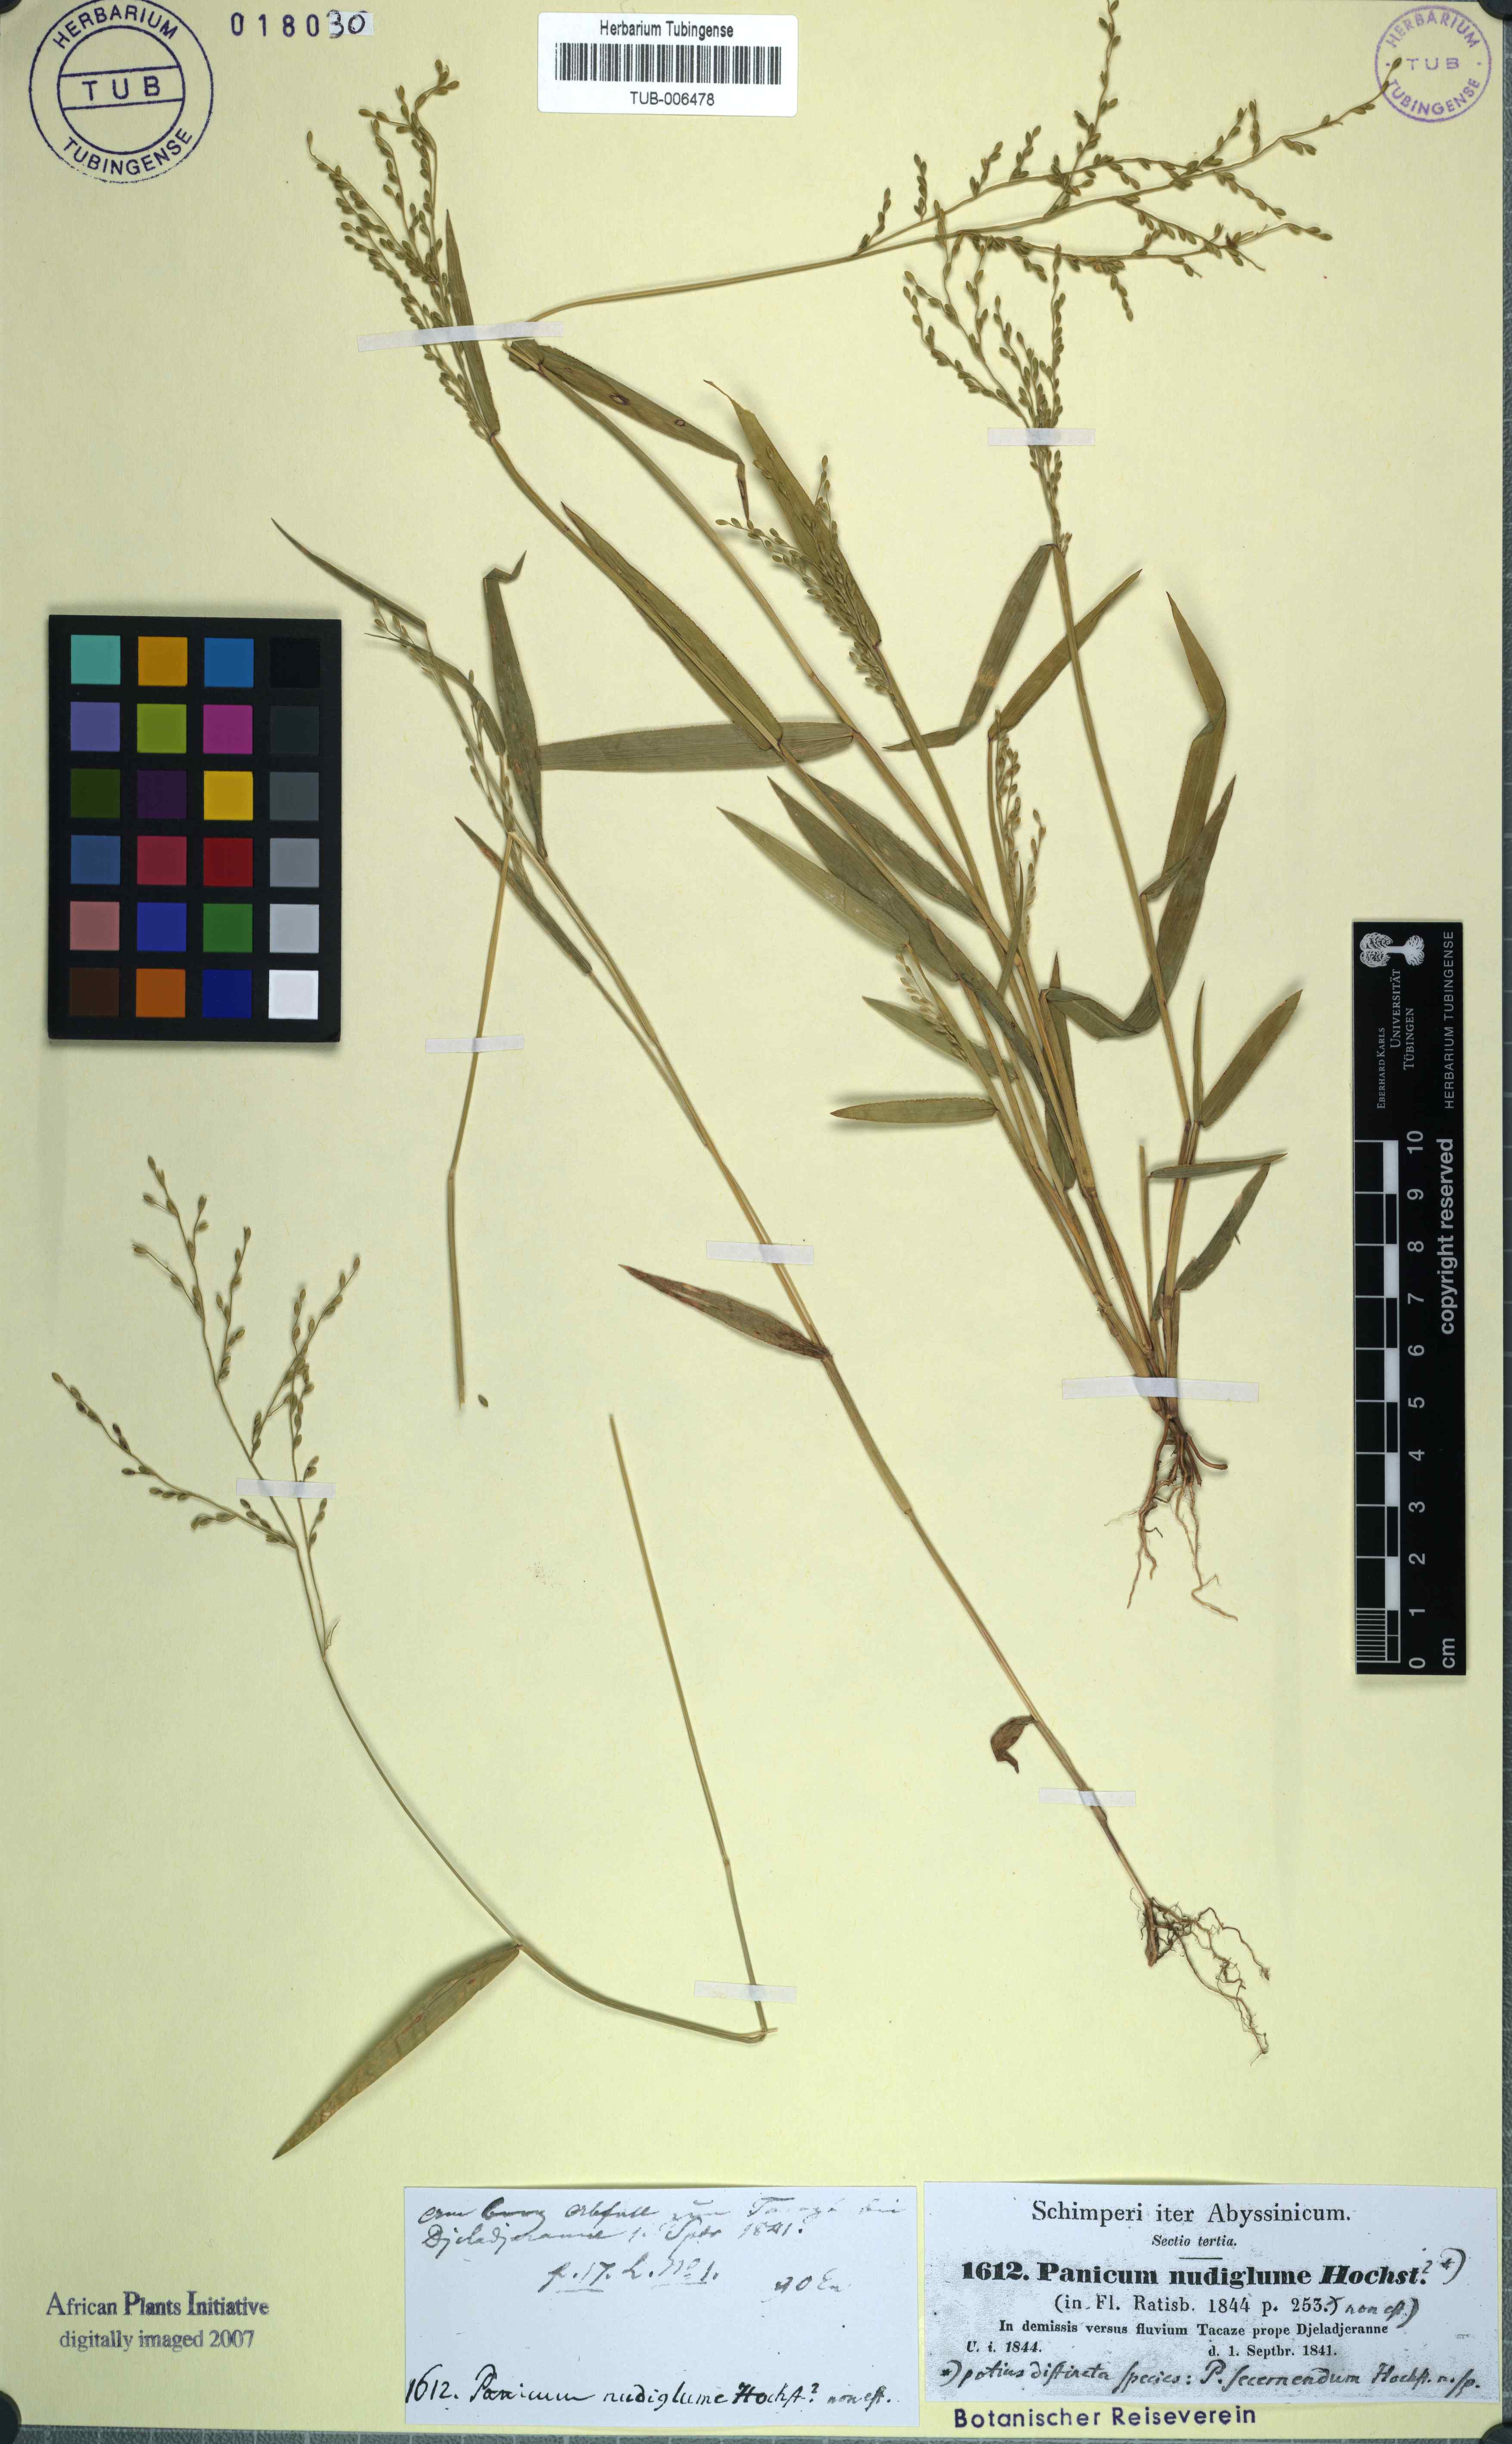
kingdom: Plantae
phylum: Tracheophyta
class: Liliopsida
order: Poales
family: Poaceae
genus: Urochloa
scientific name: Urochloa ramosa
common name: Browntop millet
